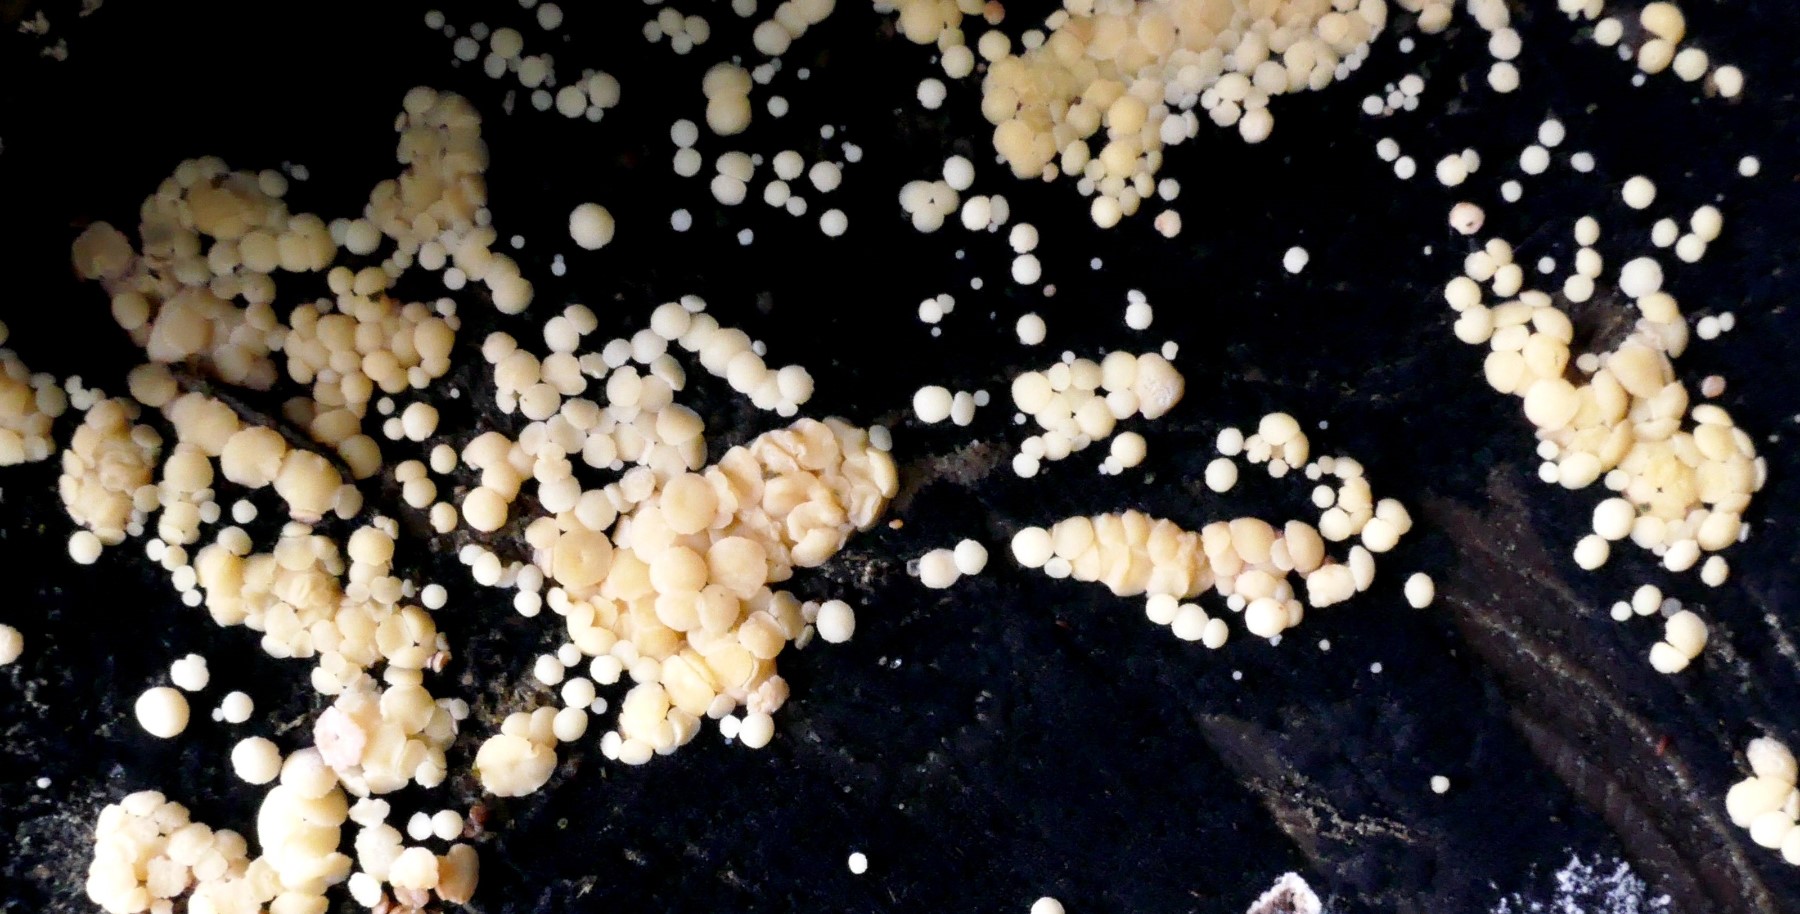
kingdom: Fungi
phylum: Ascomycota
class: Leotiomycetes
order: Helotiales
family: Helotiaceae
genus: Bispora
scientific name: Bispora pallescens
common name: måtte-snitskive
